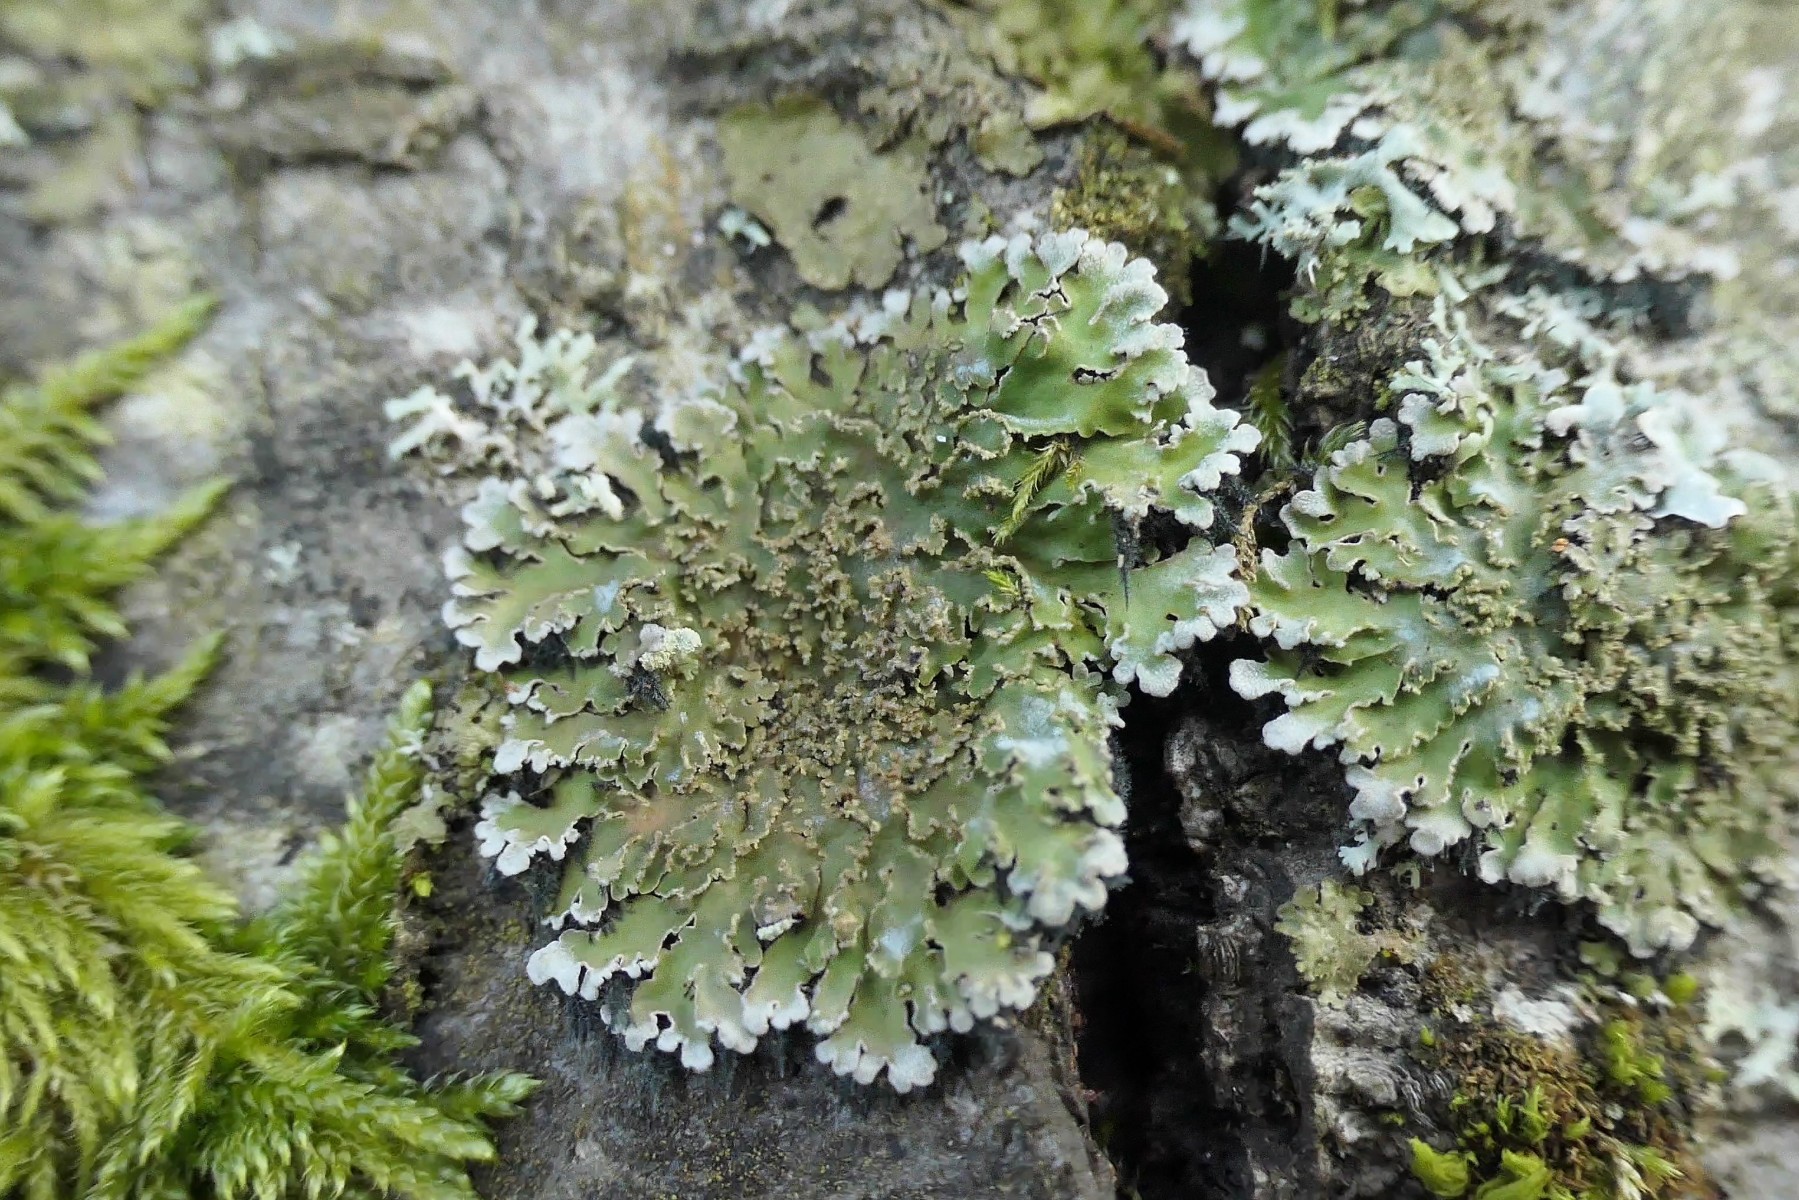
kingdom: Fungi
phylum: Ascomycota
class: Lecanoromycetes
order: Caliciales
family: Physciaceae
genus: Physconia
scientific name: Physconia enteroxantha
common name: grynet dugrosetlav
